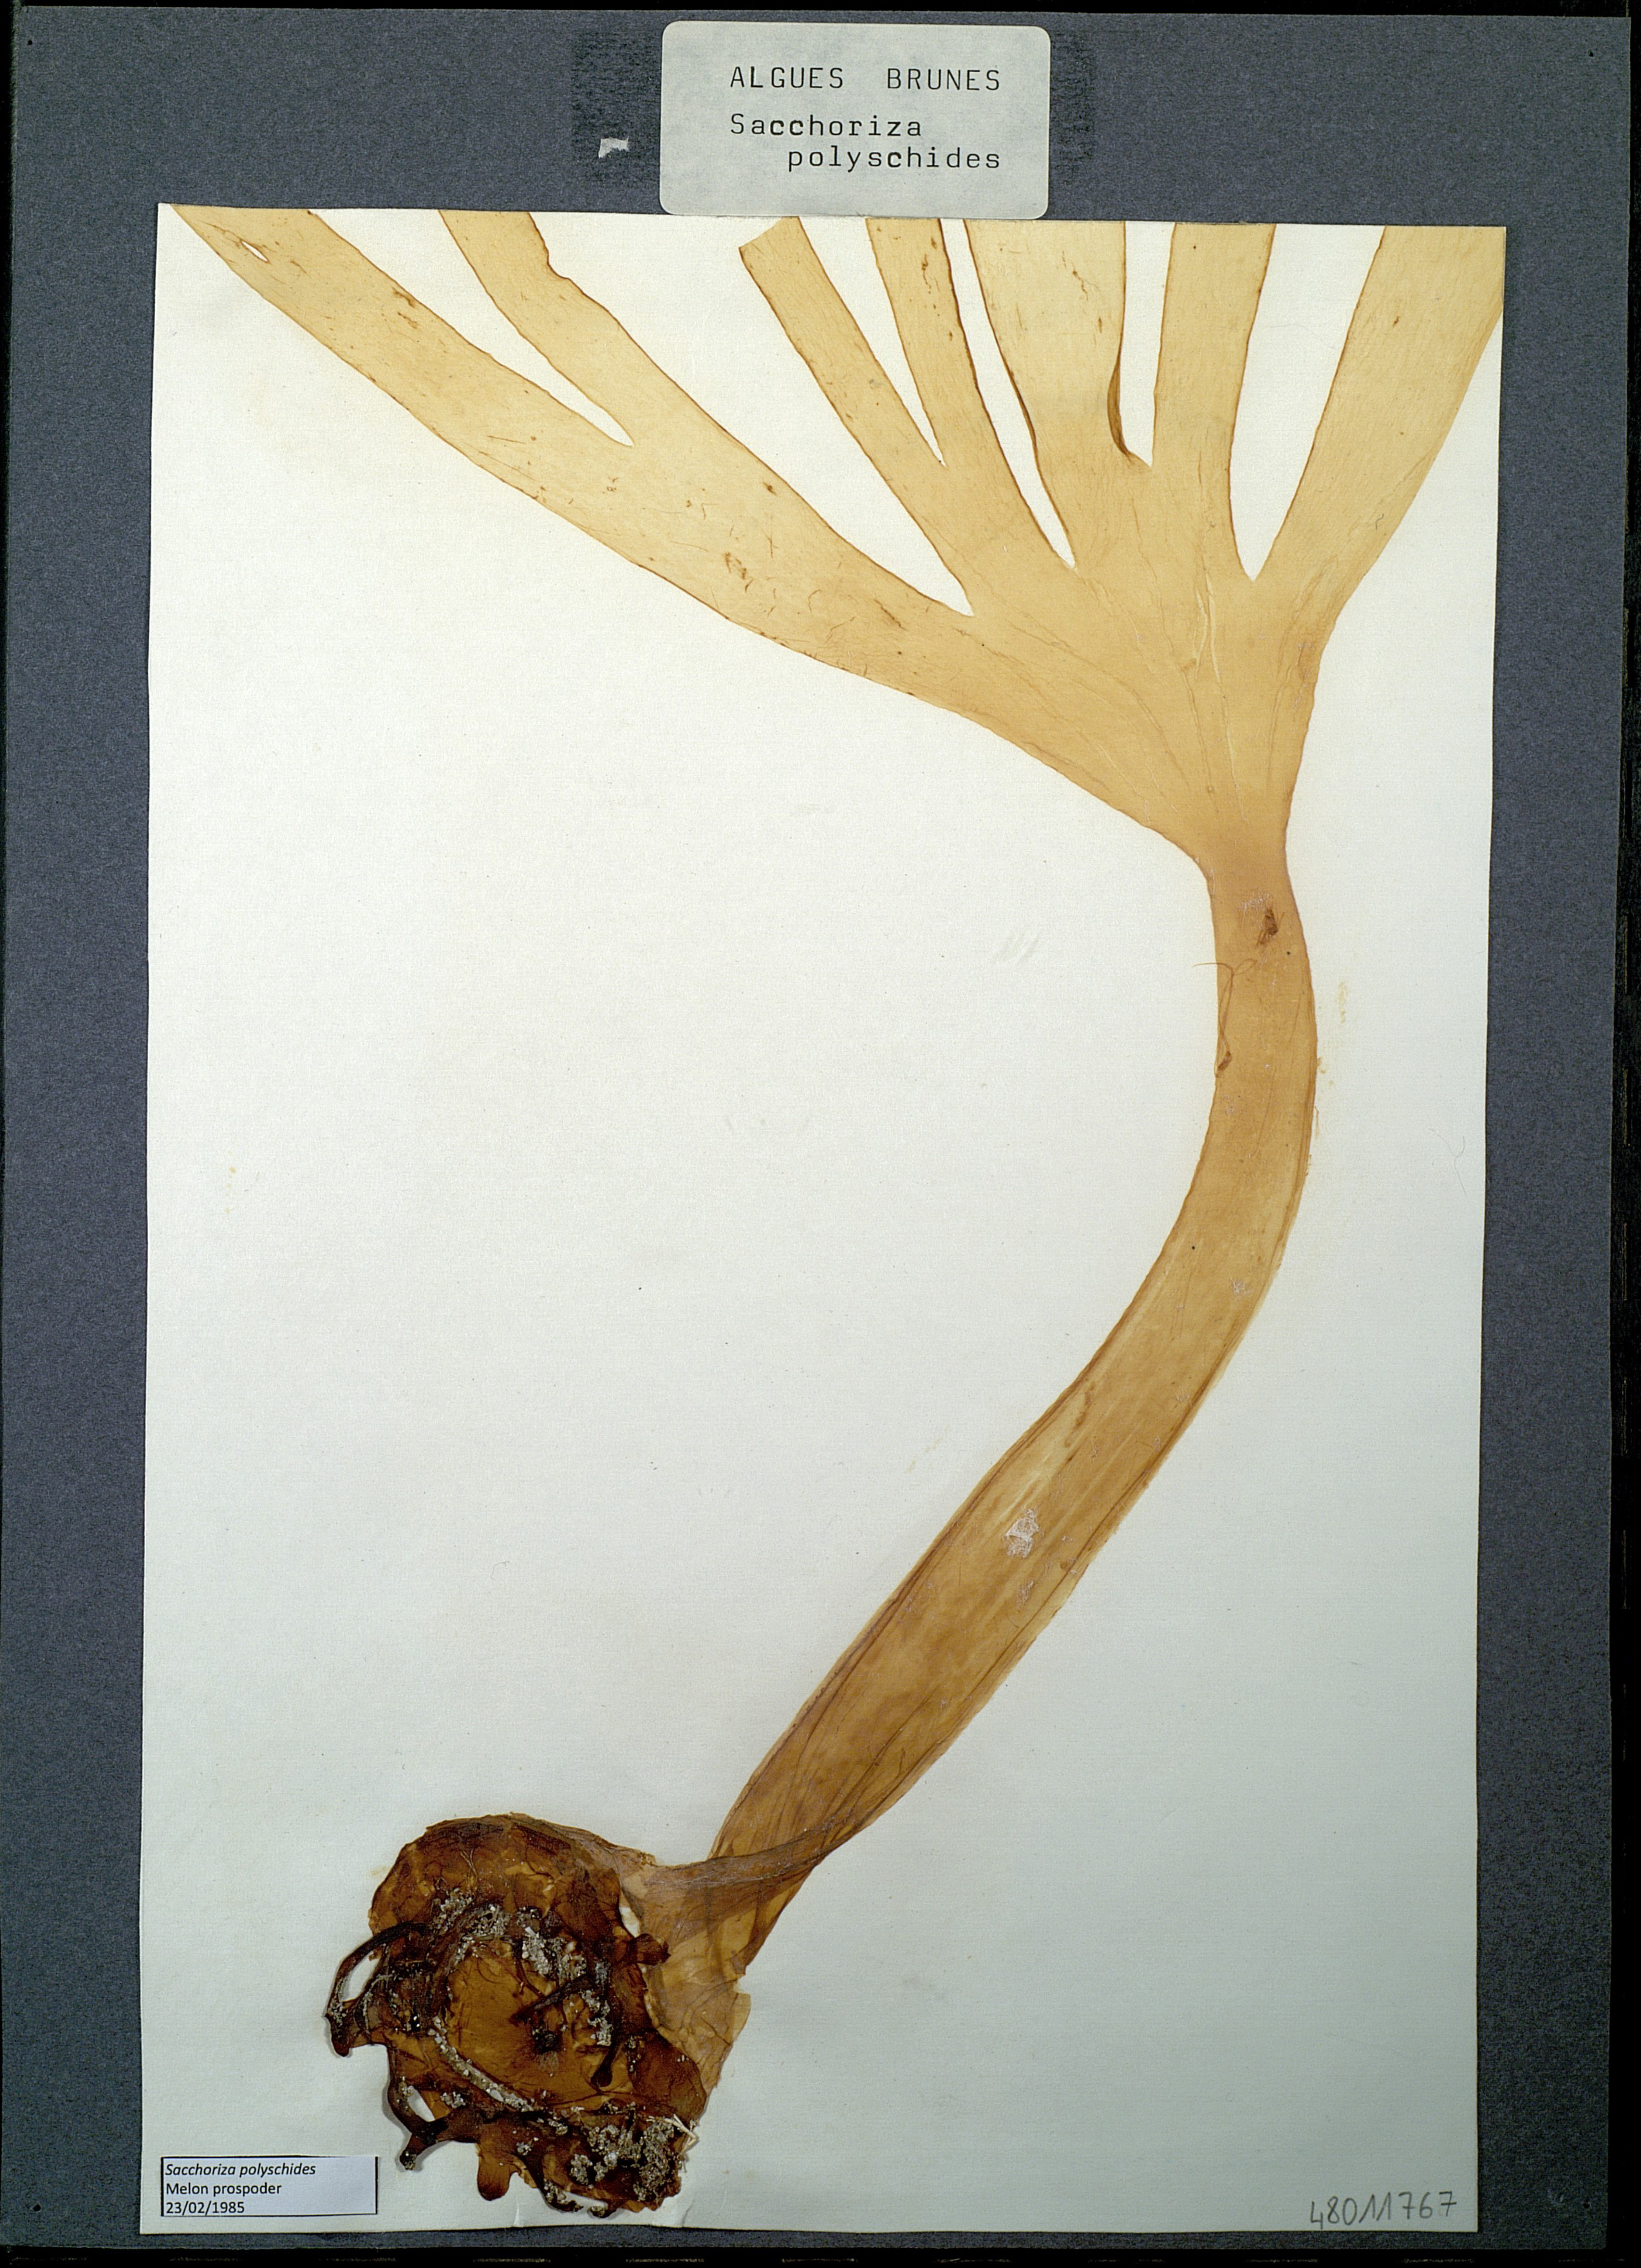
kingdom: Chromista
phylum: Ochrophyta
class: Phaeophyceae
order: Laminariales
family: Laminariaceae
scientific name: Laminariaceae
